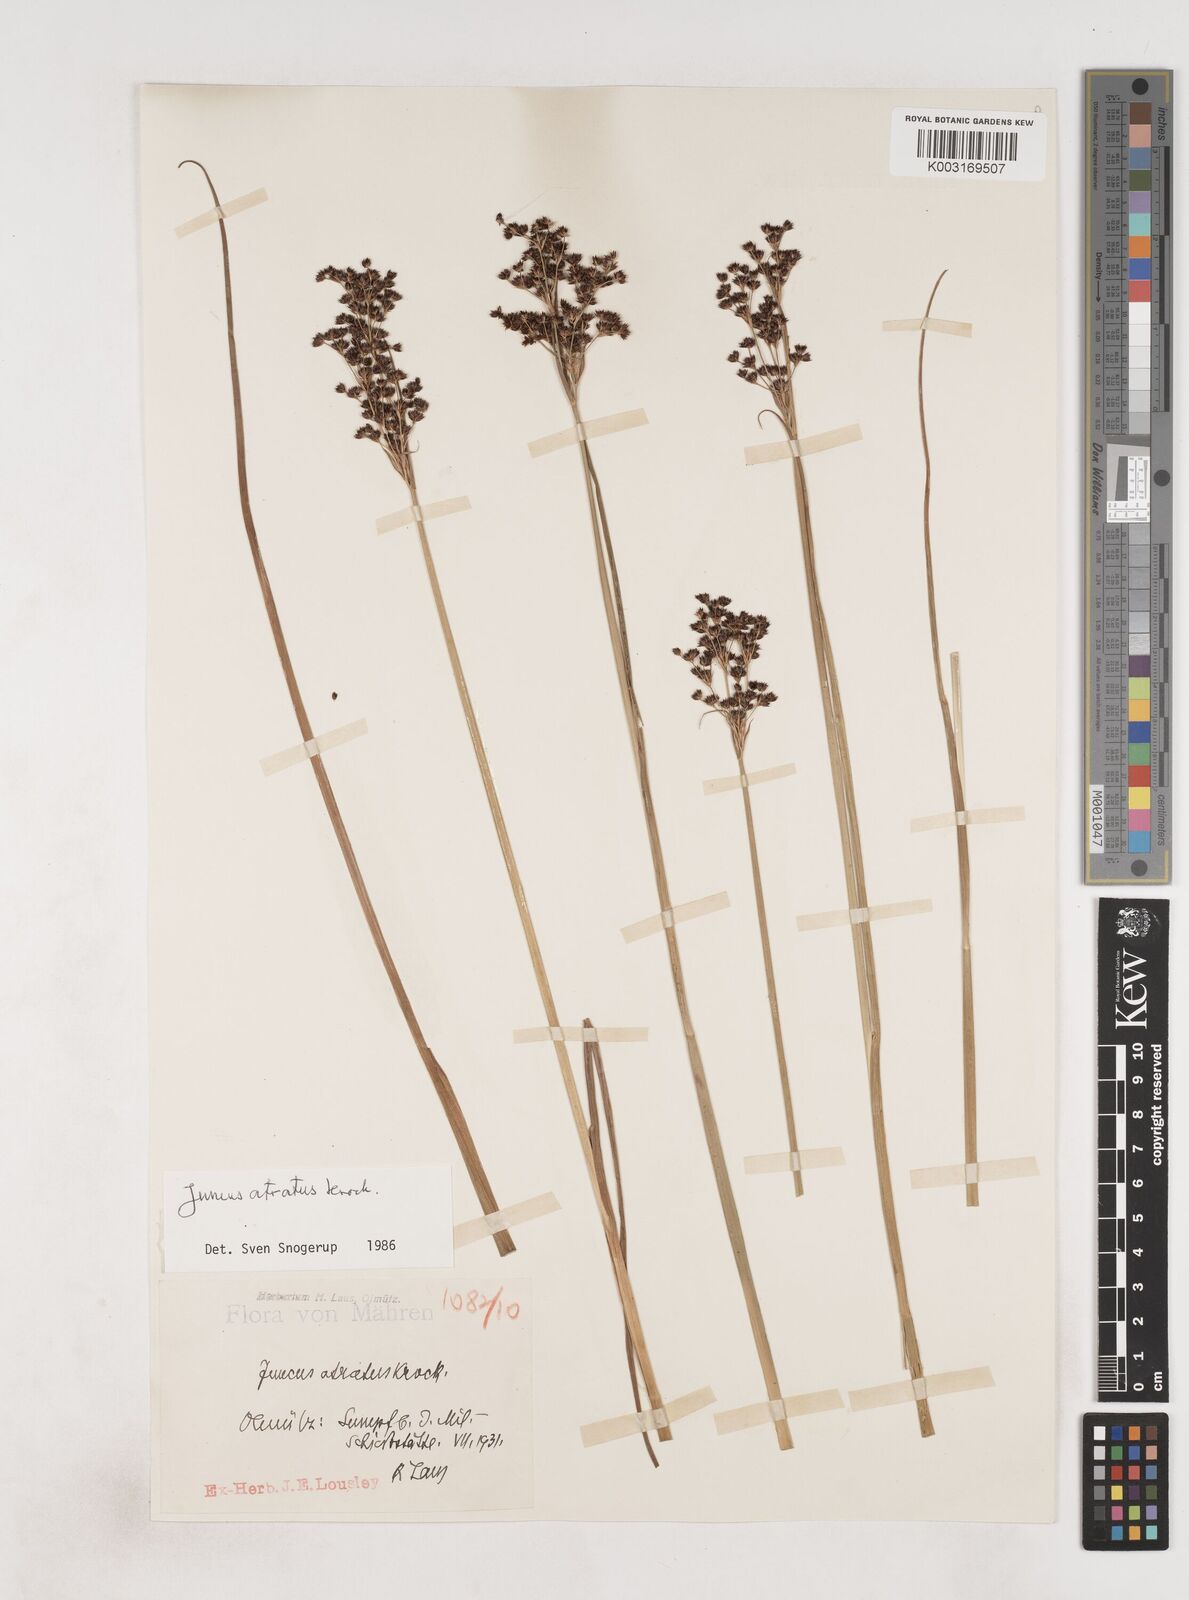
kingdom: Plantae
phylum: Tracheophyta
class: Liliopsida
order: Poales
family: Juncaceae
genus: Juncus
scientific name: Juncus atratus
